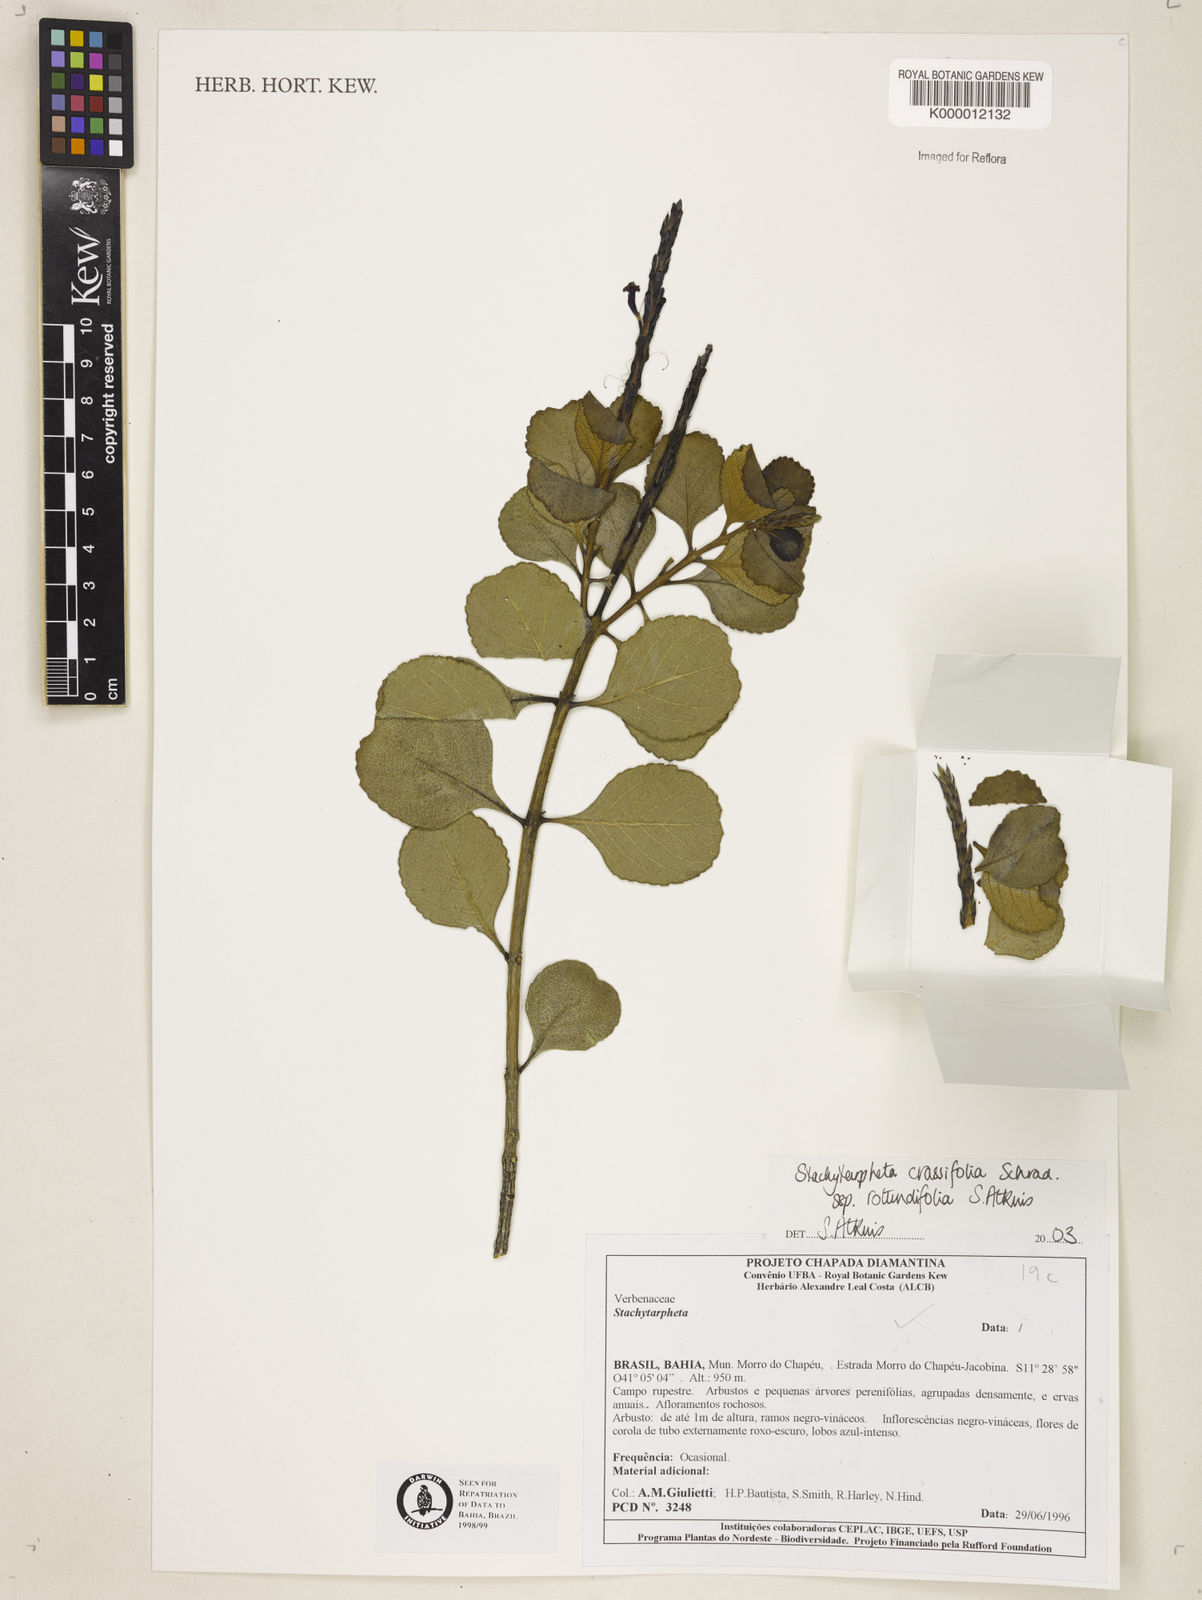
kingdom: Plantae
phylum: Tracheophyta
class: Magnoliopsida
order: Lamiales
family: Verbenaceae
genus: Stachytarpheta
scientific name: Stachytarpheta
